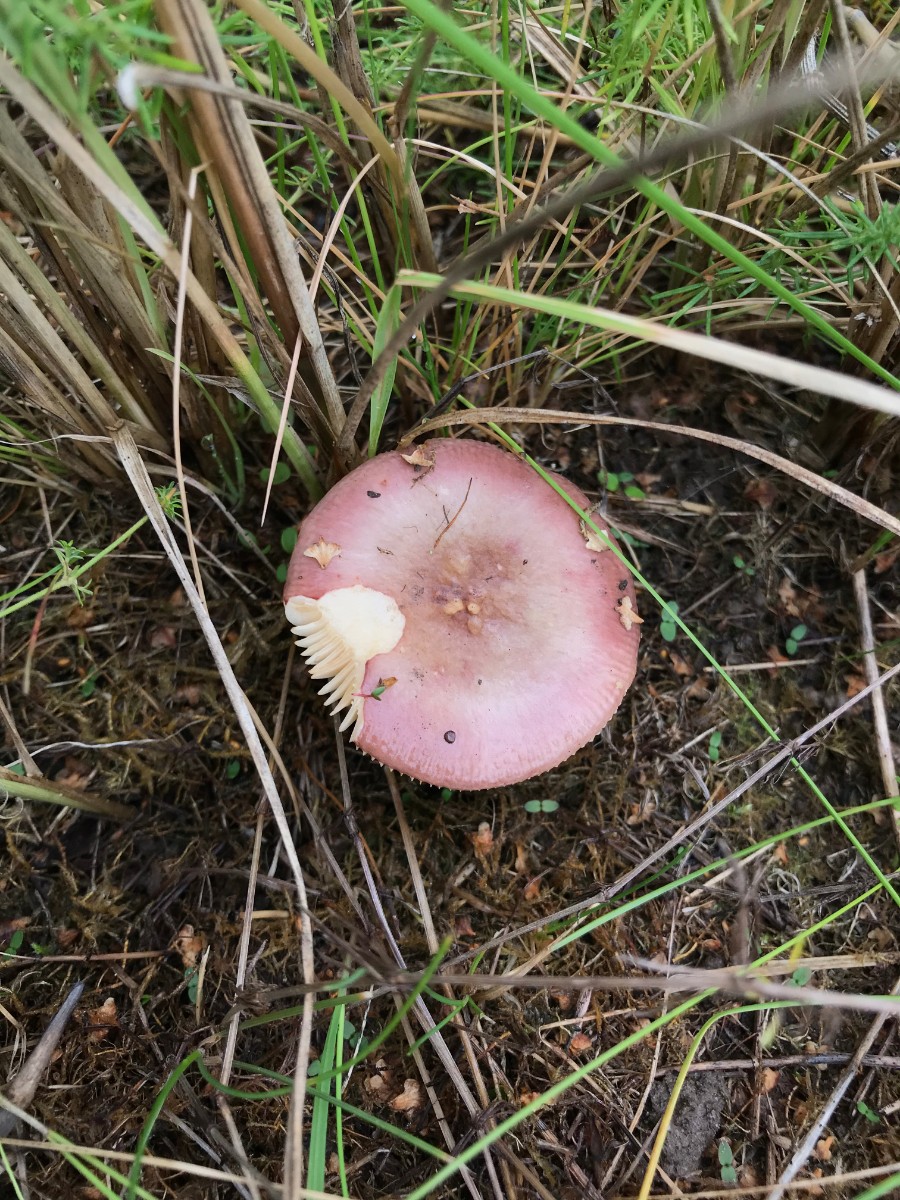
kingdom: Fungi
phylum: Basidiomycota
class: Agaricomycetes
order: Russulales
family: Russulaceae
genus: Russula
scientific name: Russula versicolor
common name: foranderlig skørhat
